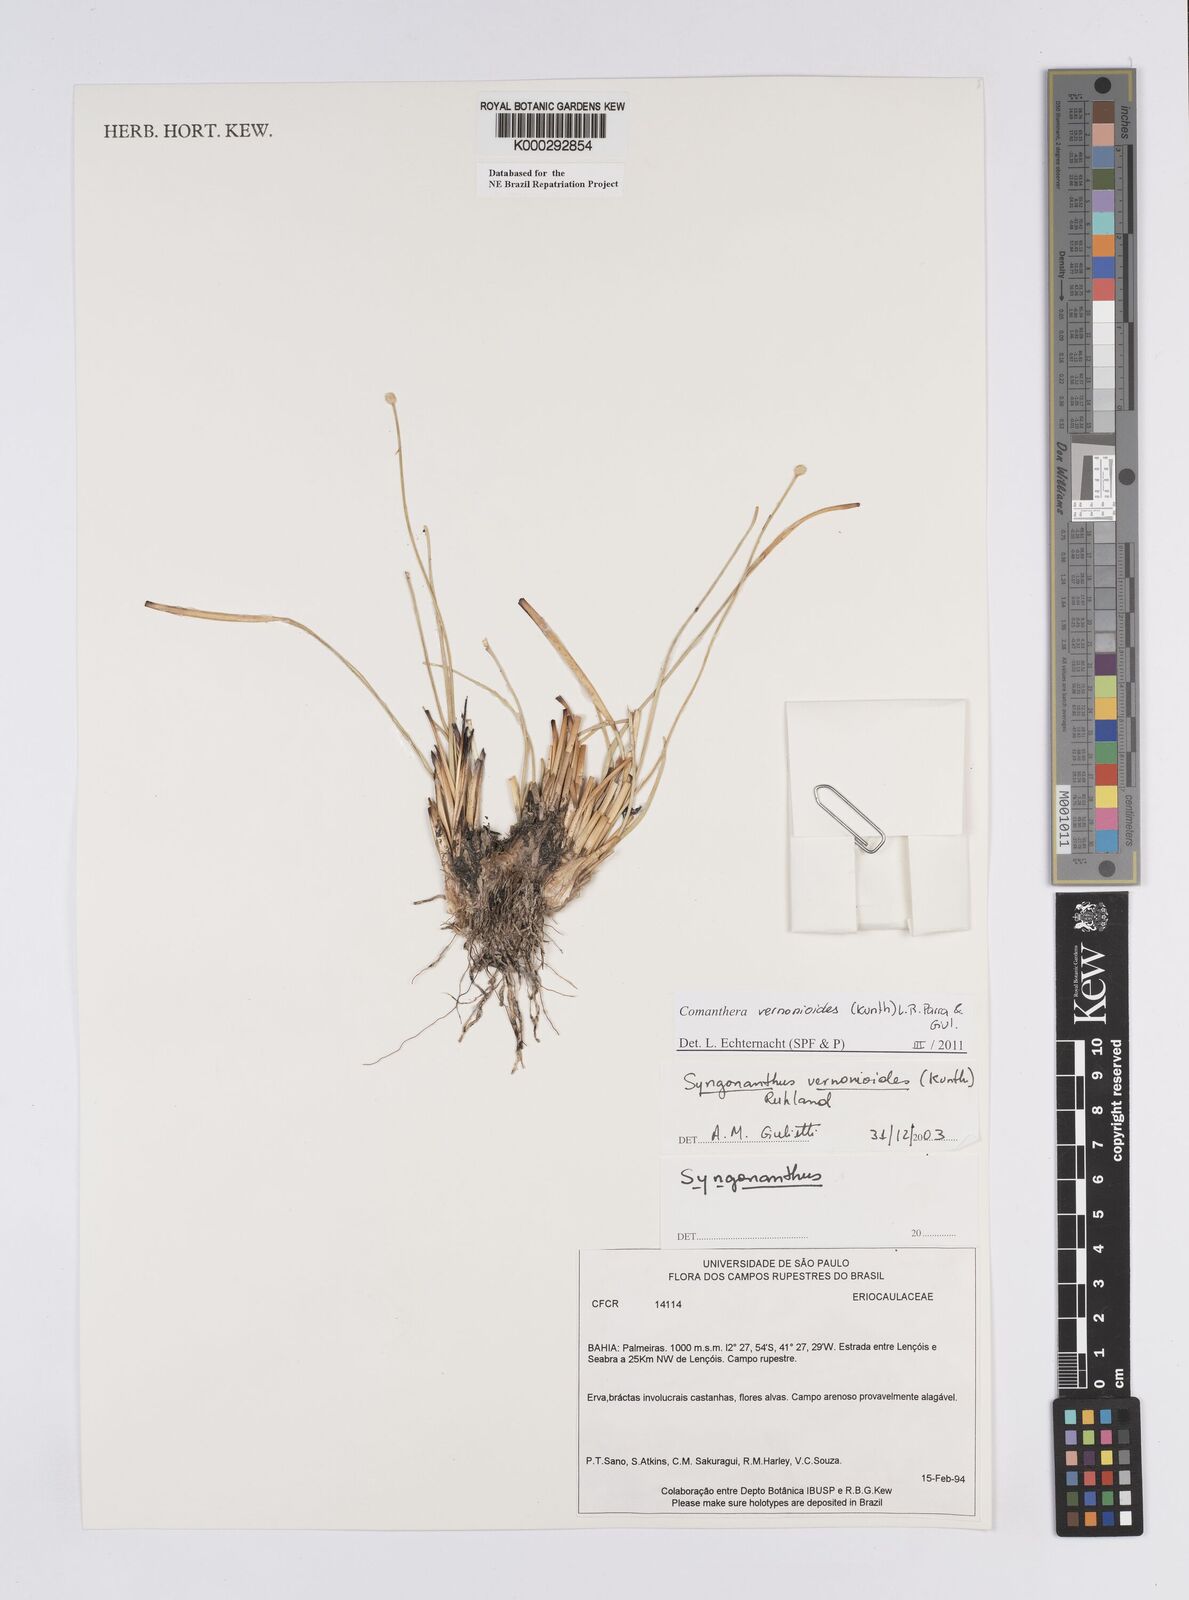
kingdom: Plantae
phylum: Tracheophyta
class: Liliopsida
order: Poales
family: Eriocaulaceae
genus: Comanthera
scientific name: Comanthera centauroides
